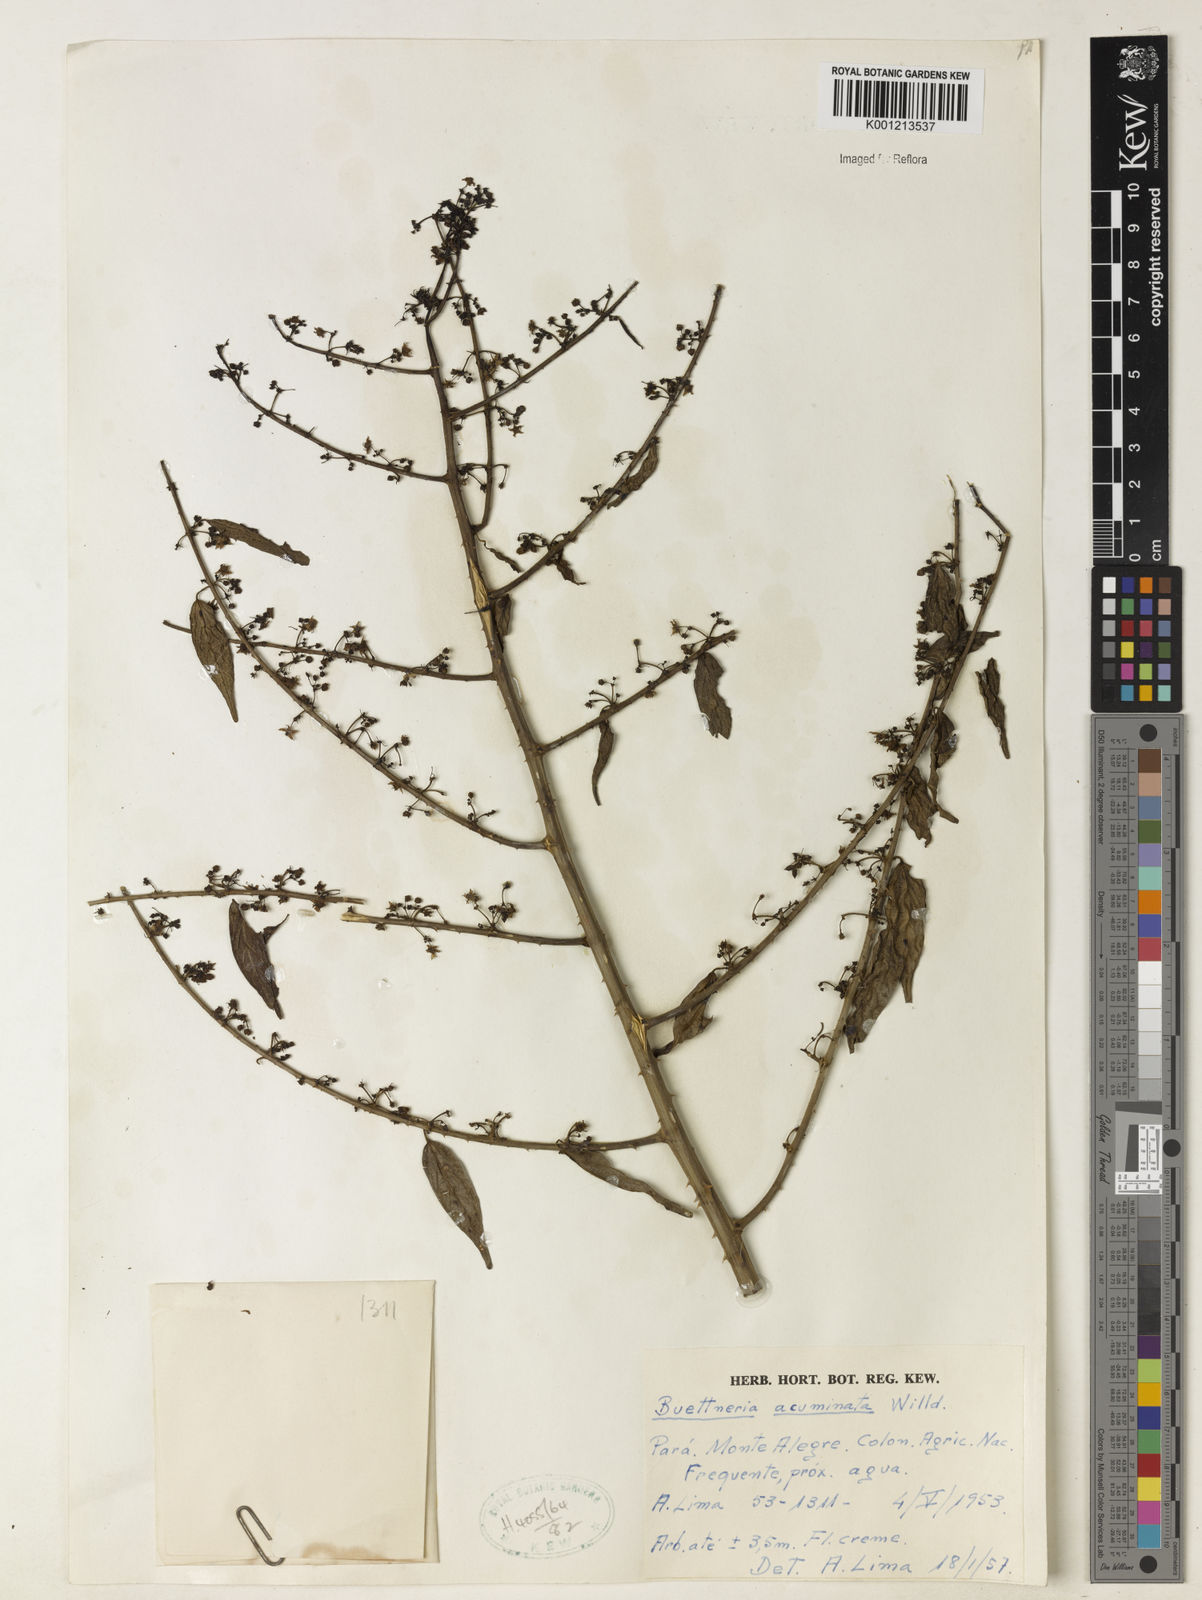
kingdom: Plantae
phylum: Tracheophyta
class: Magnoliopsida
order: Malvales
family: Malvaceae
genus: Byttneria
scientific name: Byttneria aculeata
